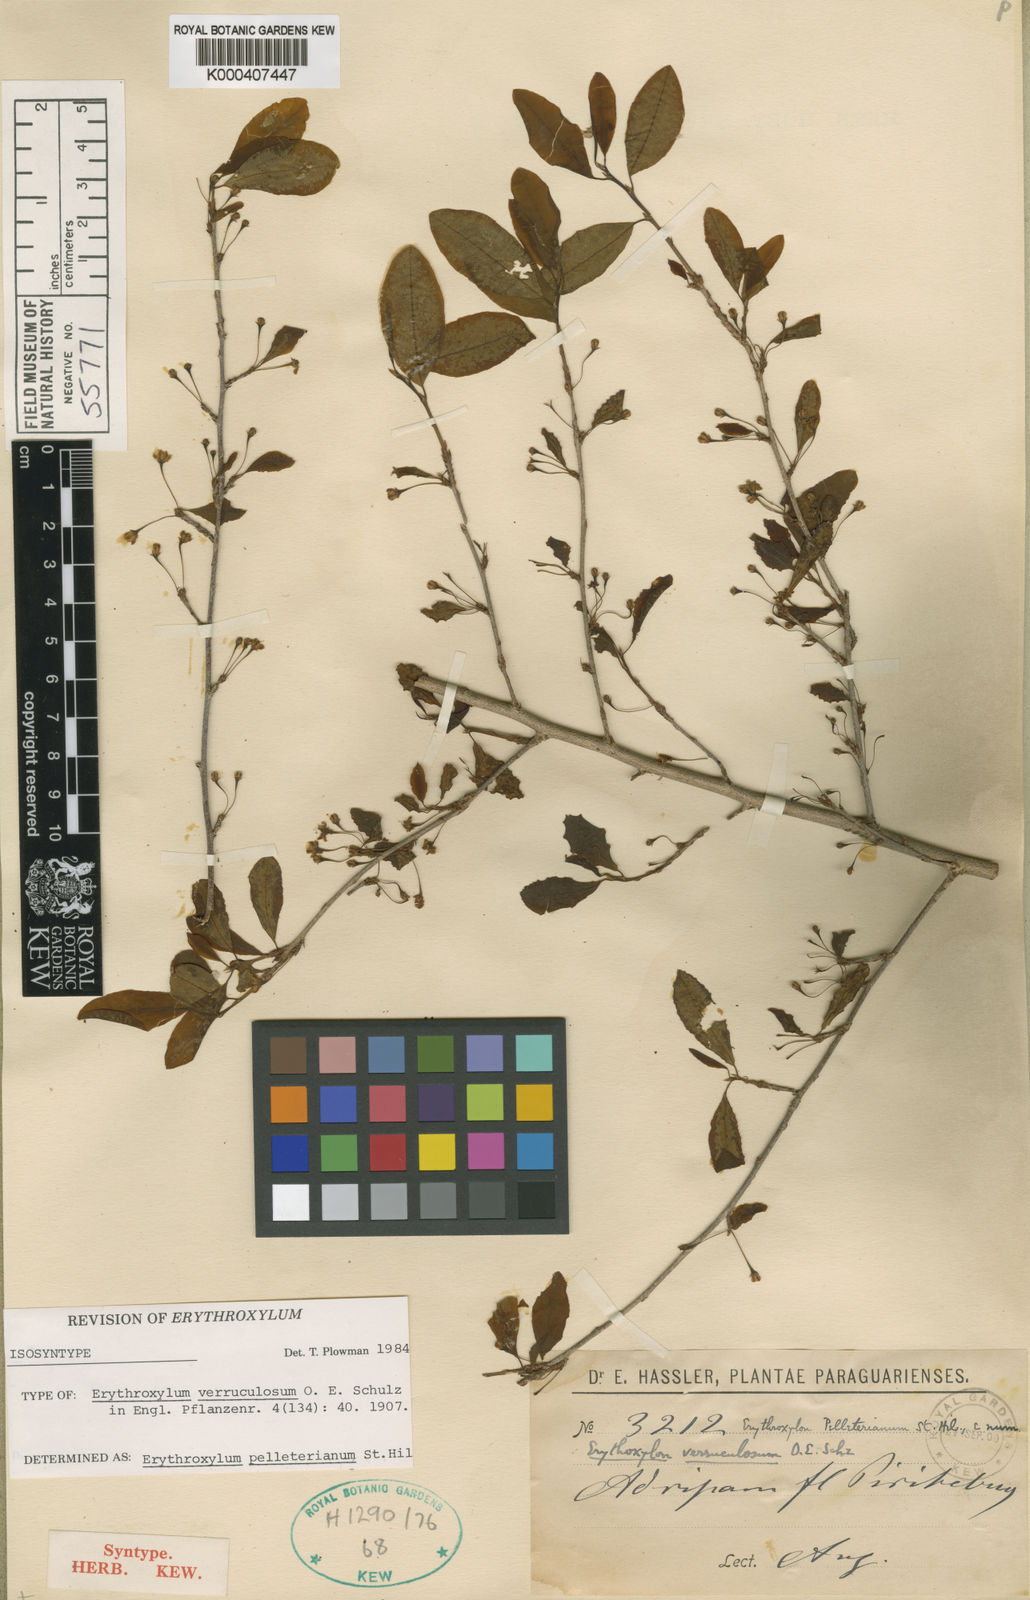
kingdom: Plantae
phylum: Tracheophyta
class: Magnoliopsida
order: Malpighiales
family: Erythroxylaceae
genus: Erythroxylum
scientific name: Erythroxylum pelleterianum
